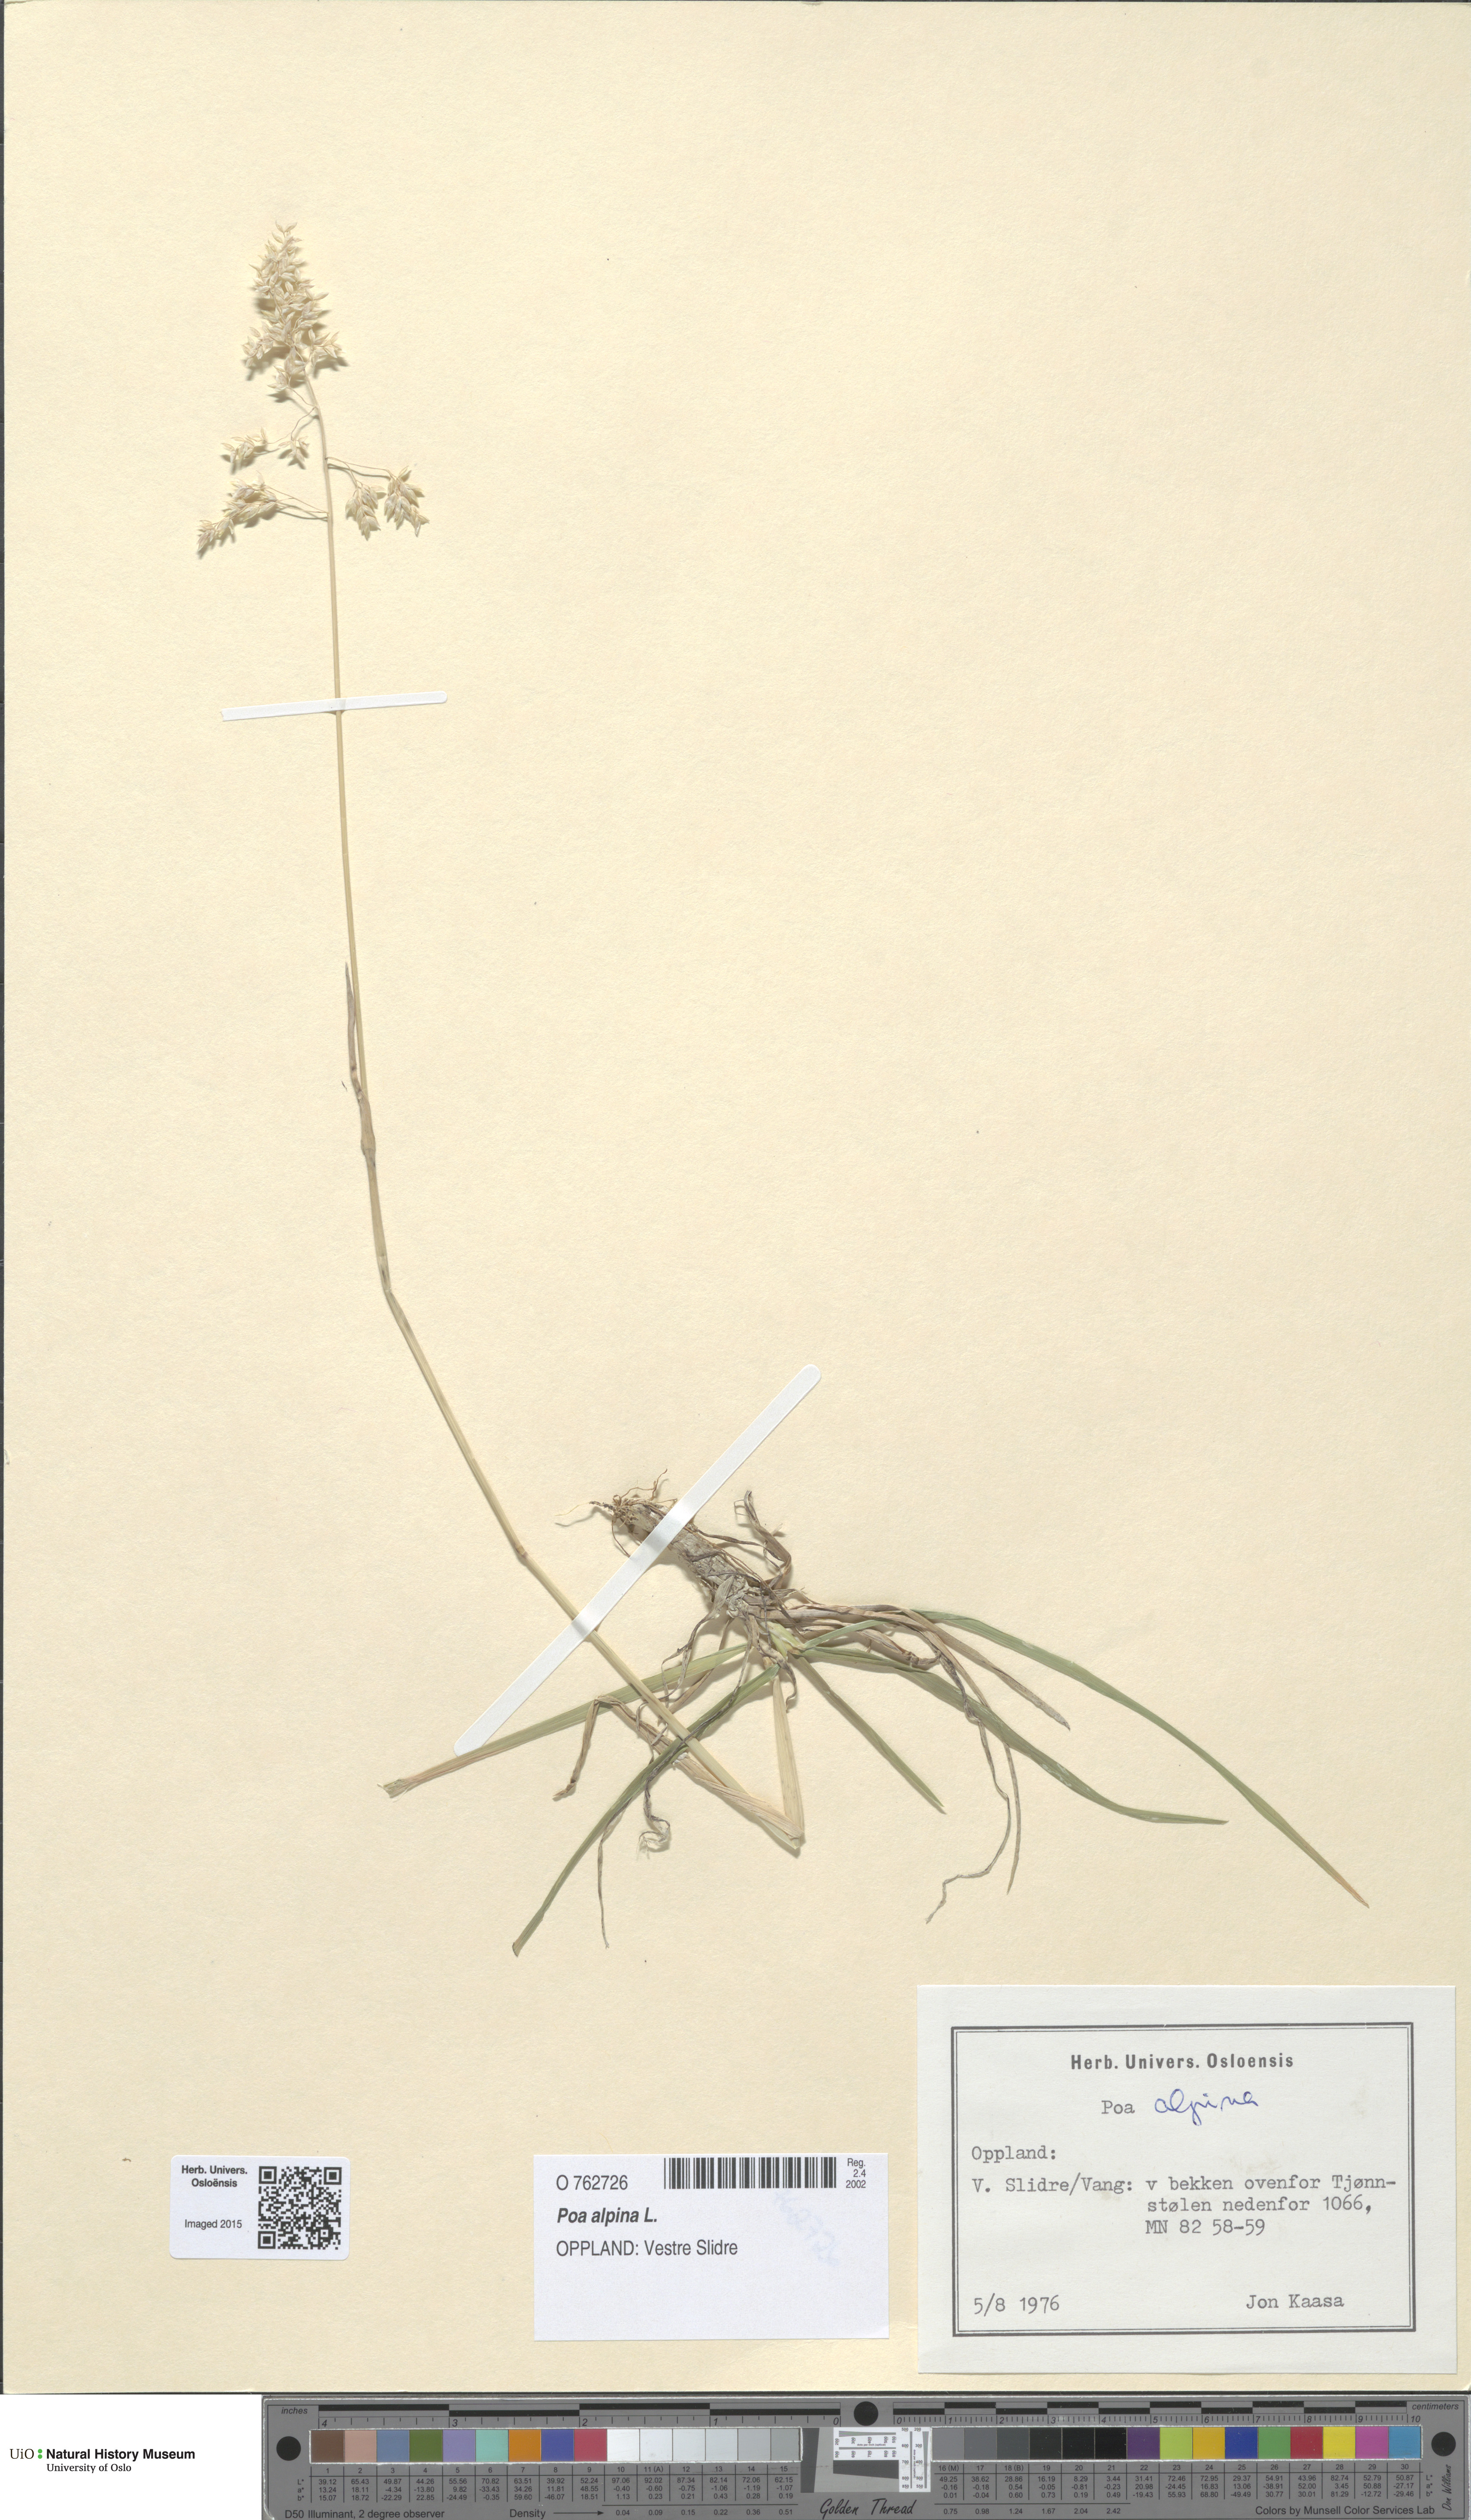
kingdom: Plantae
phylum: Tracheophyta
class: Liliopsida
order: Poales
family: Poaceae
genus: Poa
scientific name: Poa alpina
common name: Alpine bluegrass
